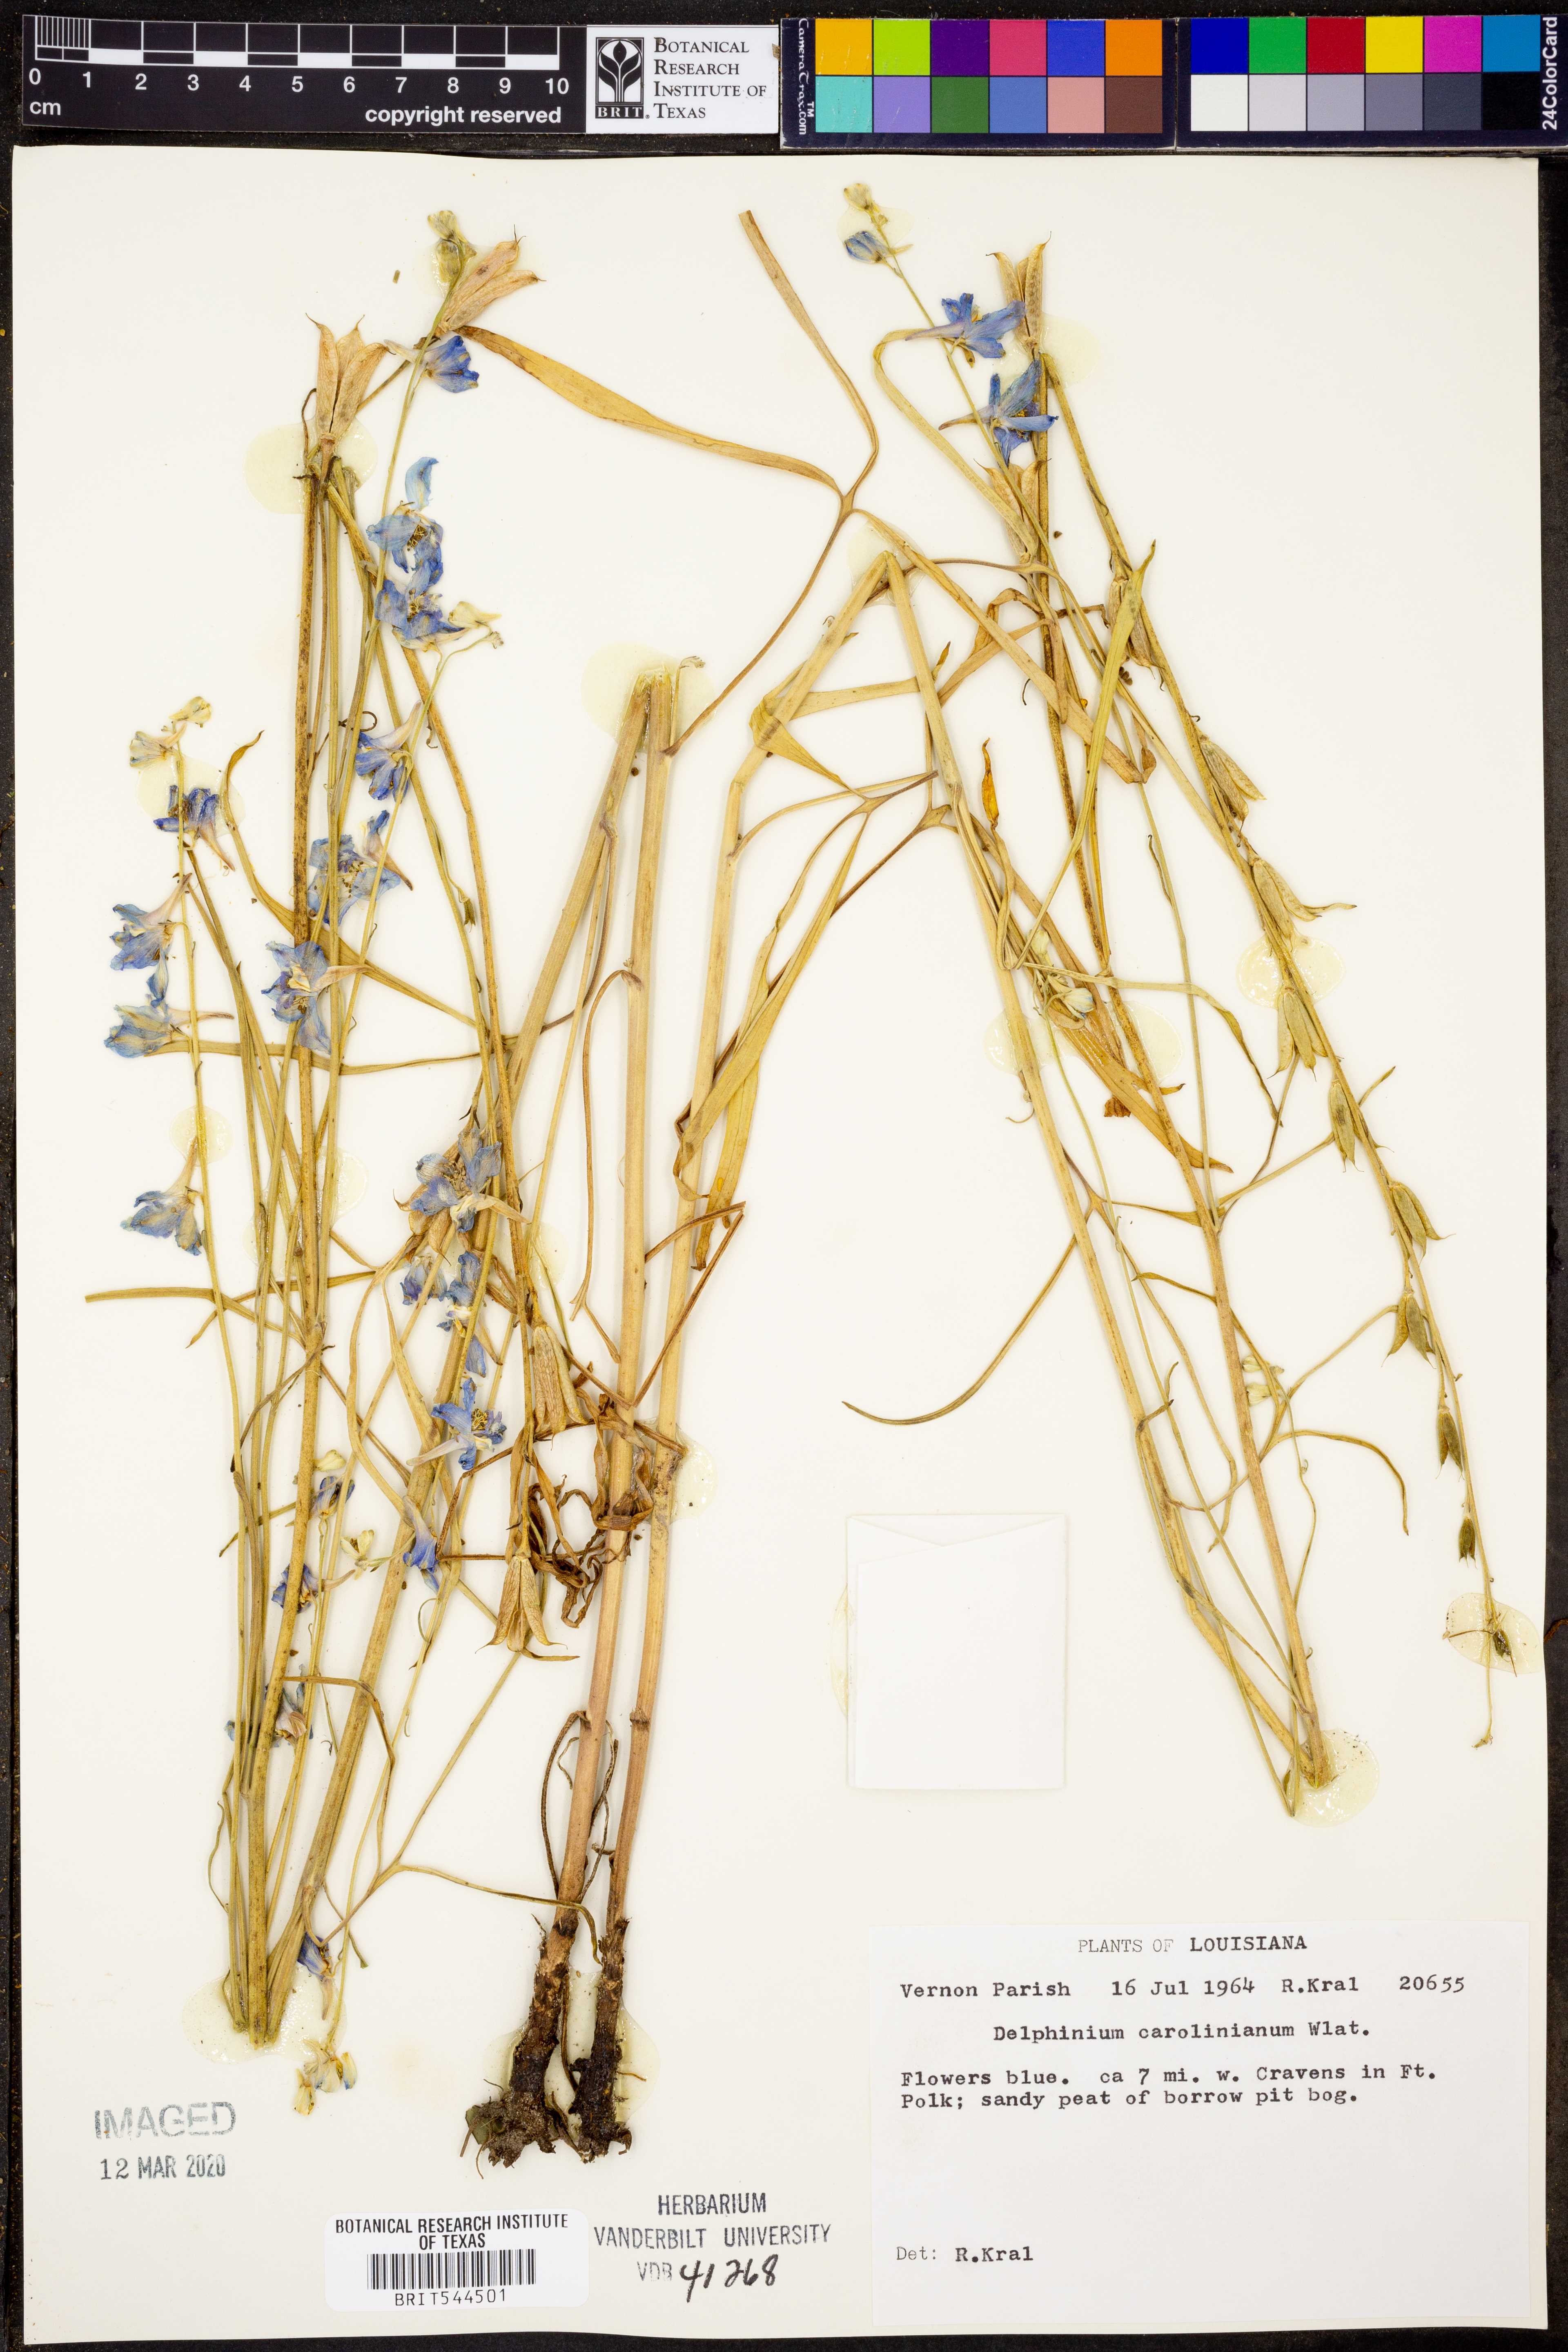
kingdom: Plantae
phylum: Tracheophyta
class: Magnoliopsida
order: Ranunculales
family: Ranunculaceae
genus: Delphinium
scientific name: Delphinium carolinianum
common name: Carolina larkspur
